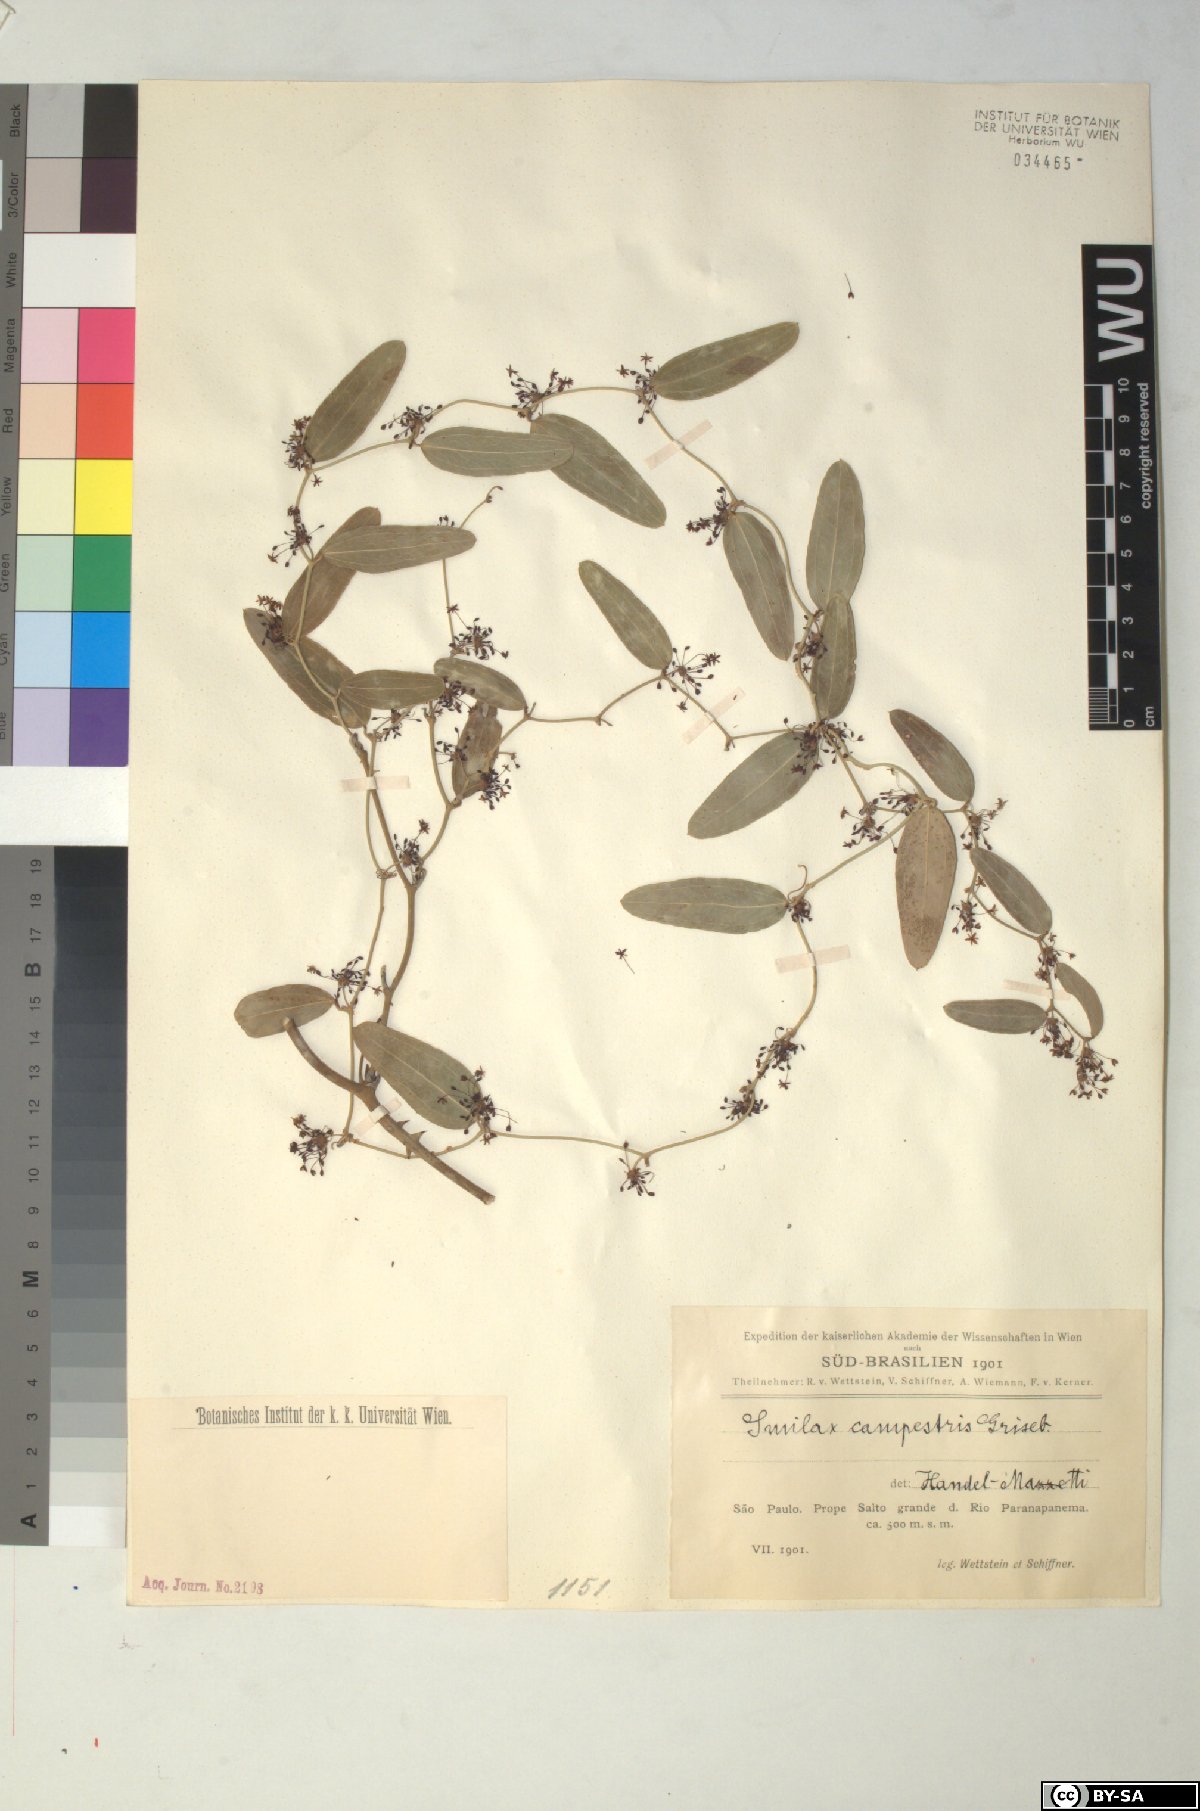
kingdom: Plantae
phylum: Tracheophyta
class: Liliopsida
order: Liliales
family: Smilacaceae
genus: Smilax
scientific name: Smilax campestris
